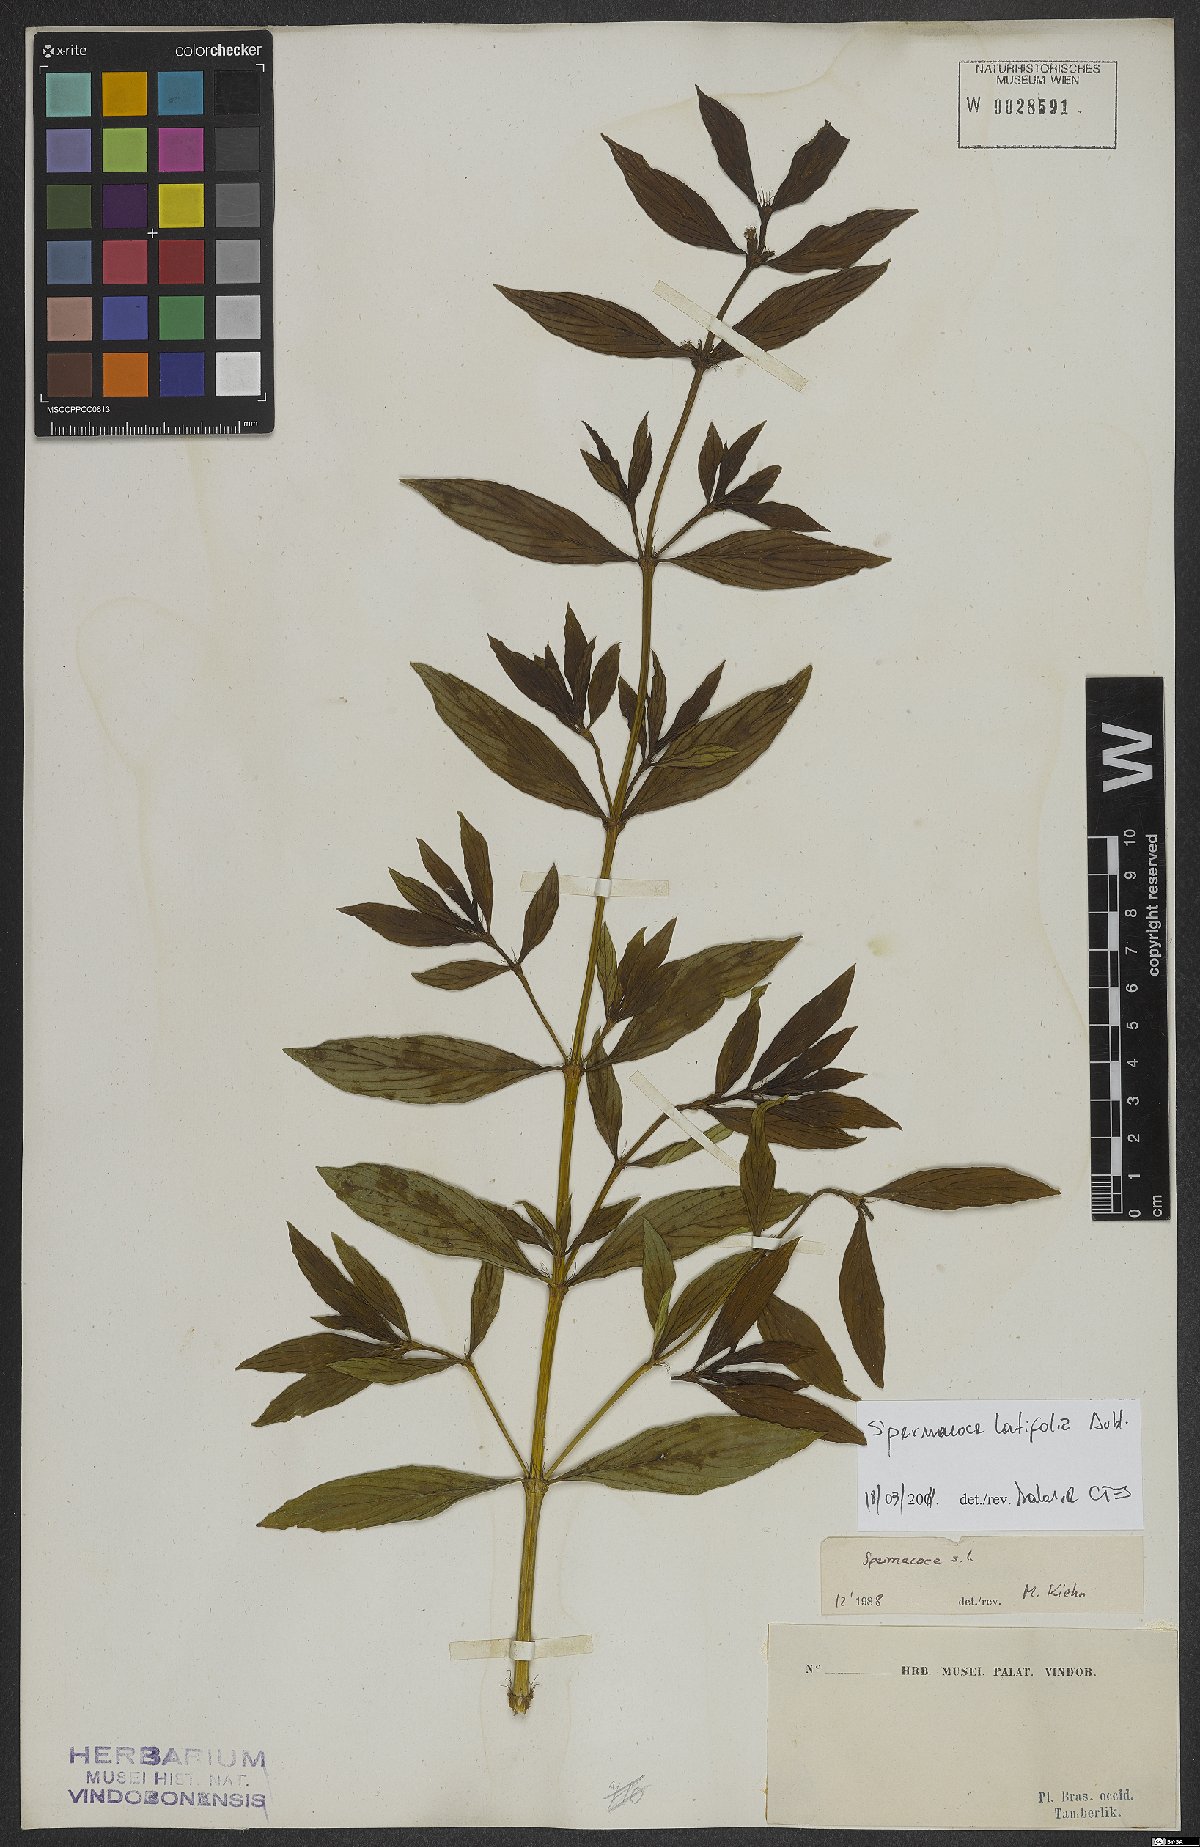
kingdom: Plantae
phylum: Tracheophyta
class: Magnoliopsida
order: Gentianales
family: Rubiaceae
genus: Spermacoce
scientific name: Spermacoce latifolia
